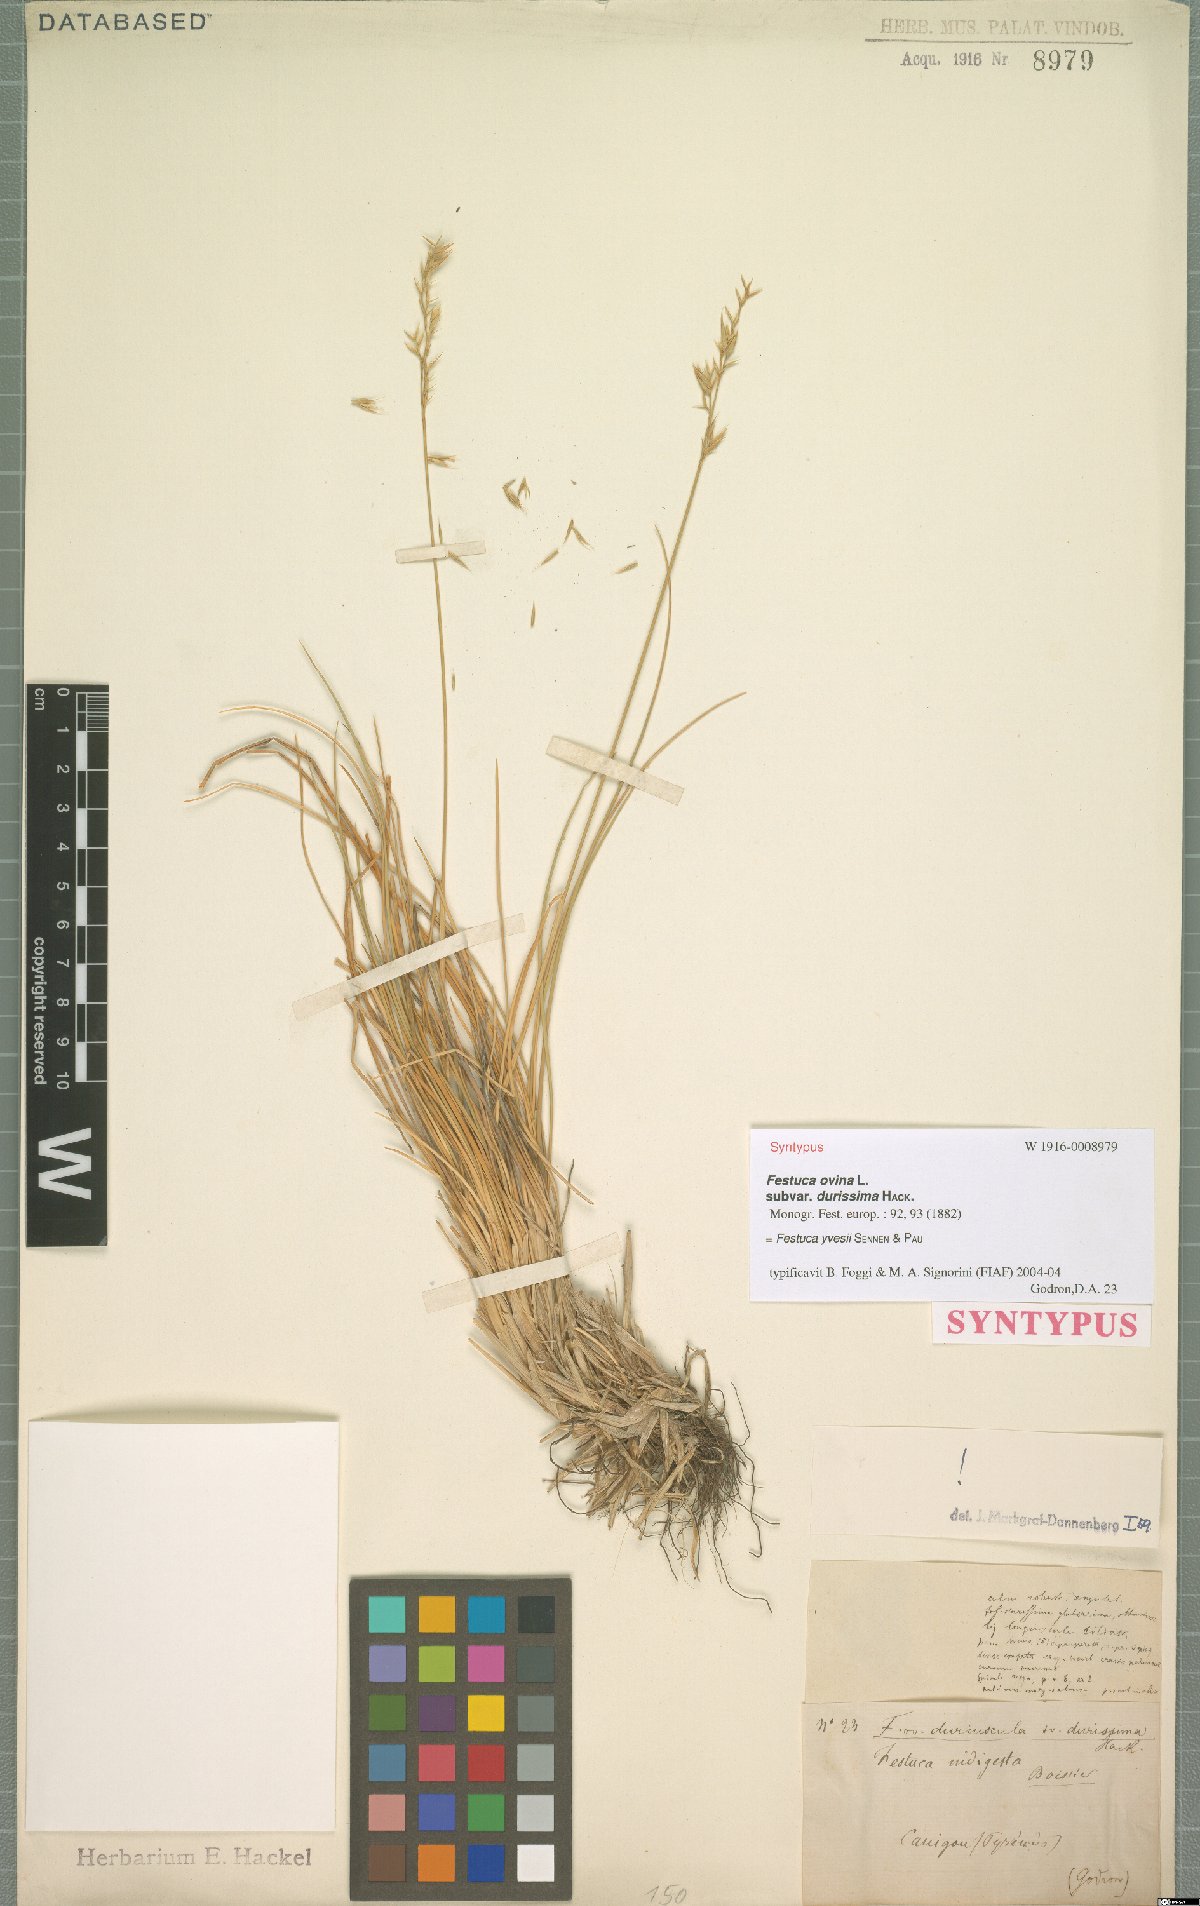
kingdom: Plantae
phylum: Tracheophyta
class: Liliopsida
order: Poales
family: Poaceae
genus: Festuca
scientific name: Festuca durissima
